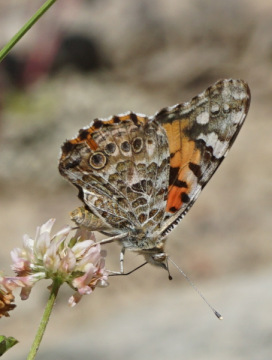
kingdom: Animalia
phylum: Arthropoda
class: Insecta
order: Lepidoptera
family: Nymphalidae
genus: Vanessa
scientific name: Vanessa cardui
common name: Painted Lady
